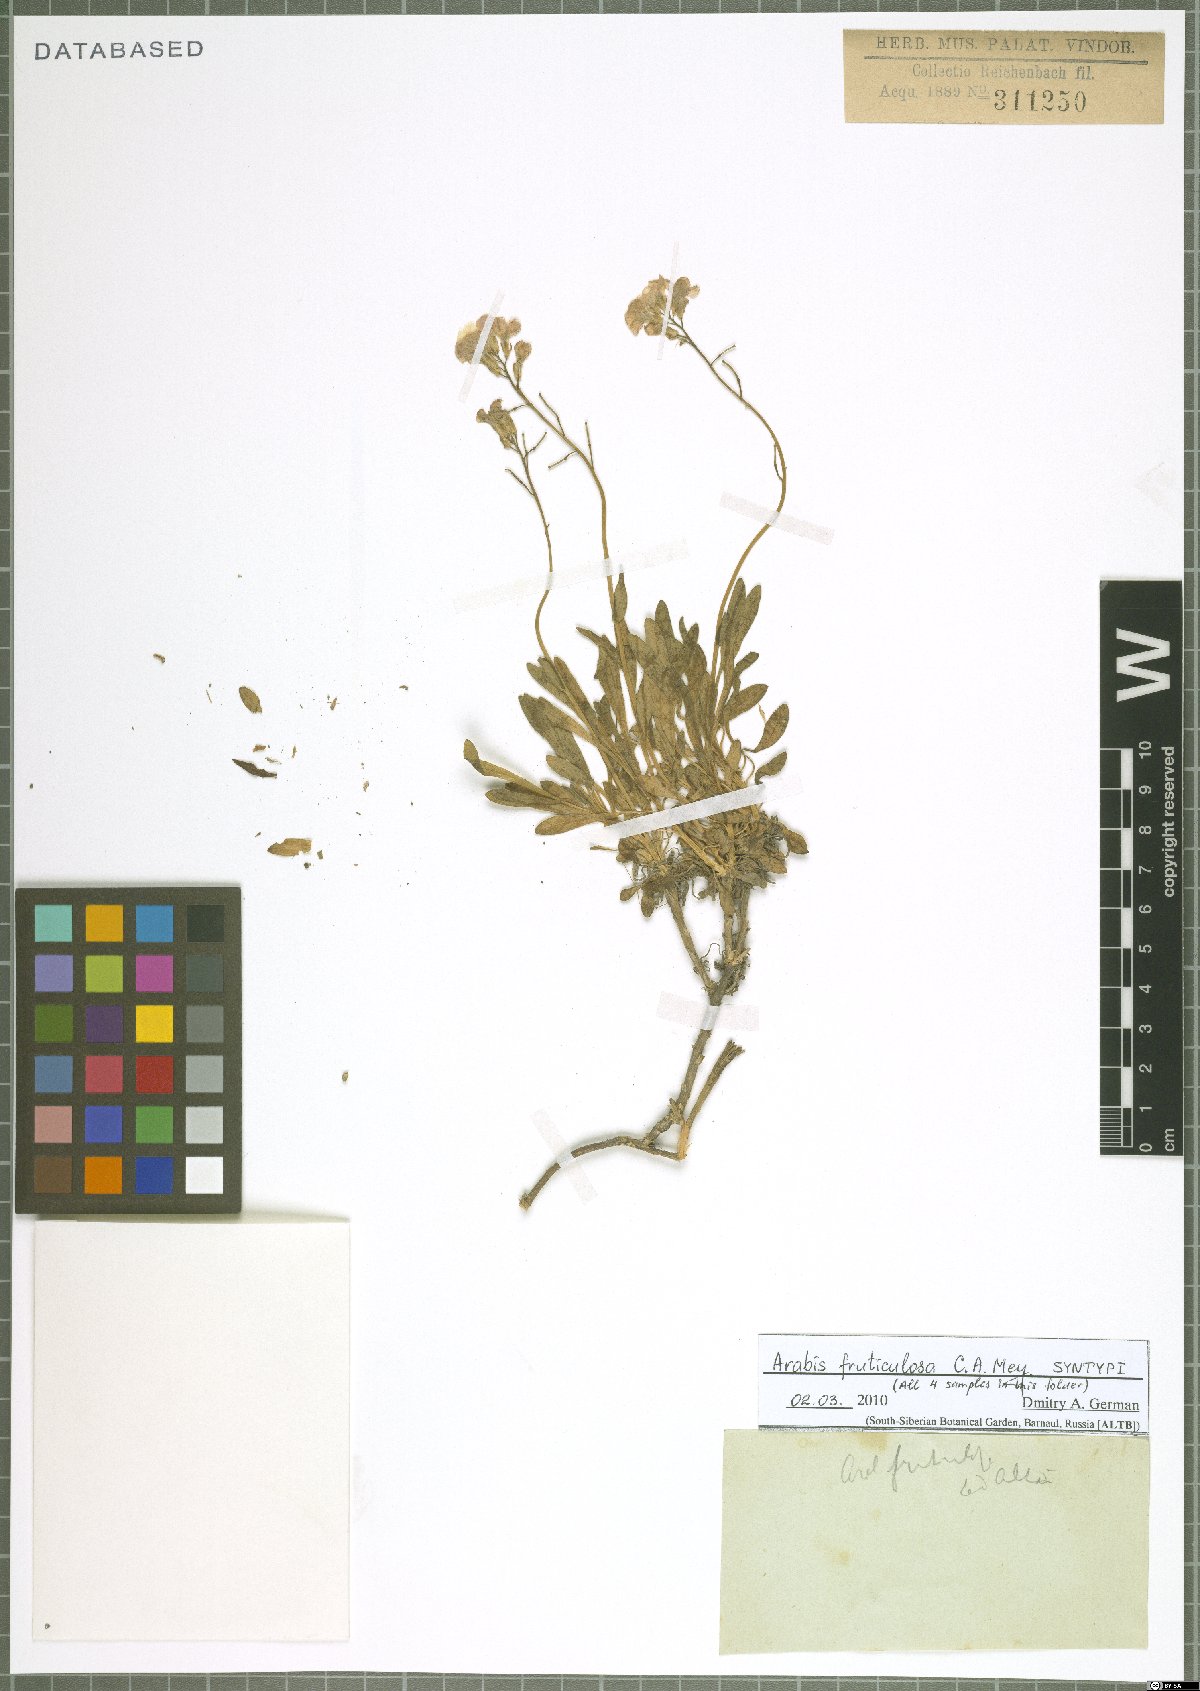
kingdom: Plantae
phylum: Tracheophyta
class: Magnoliopsida
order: Brassicales
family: Brassicaceae
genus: Dendroarabis
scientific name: Dendroarabis fruticulosa
